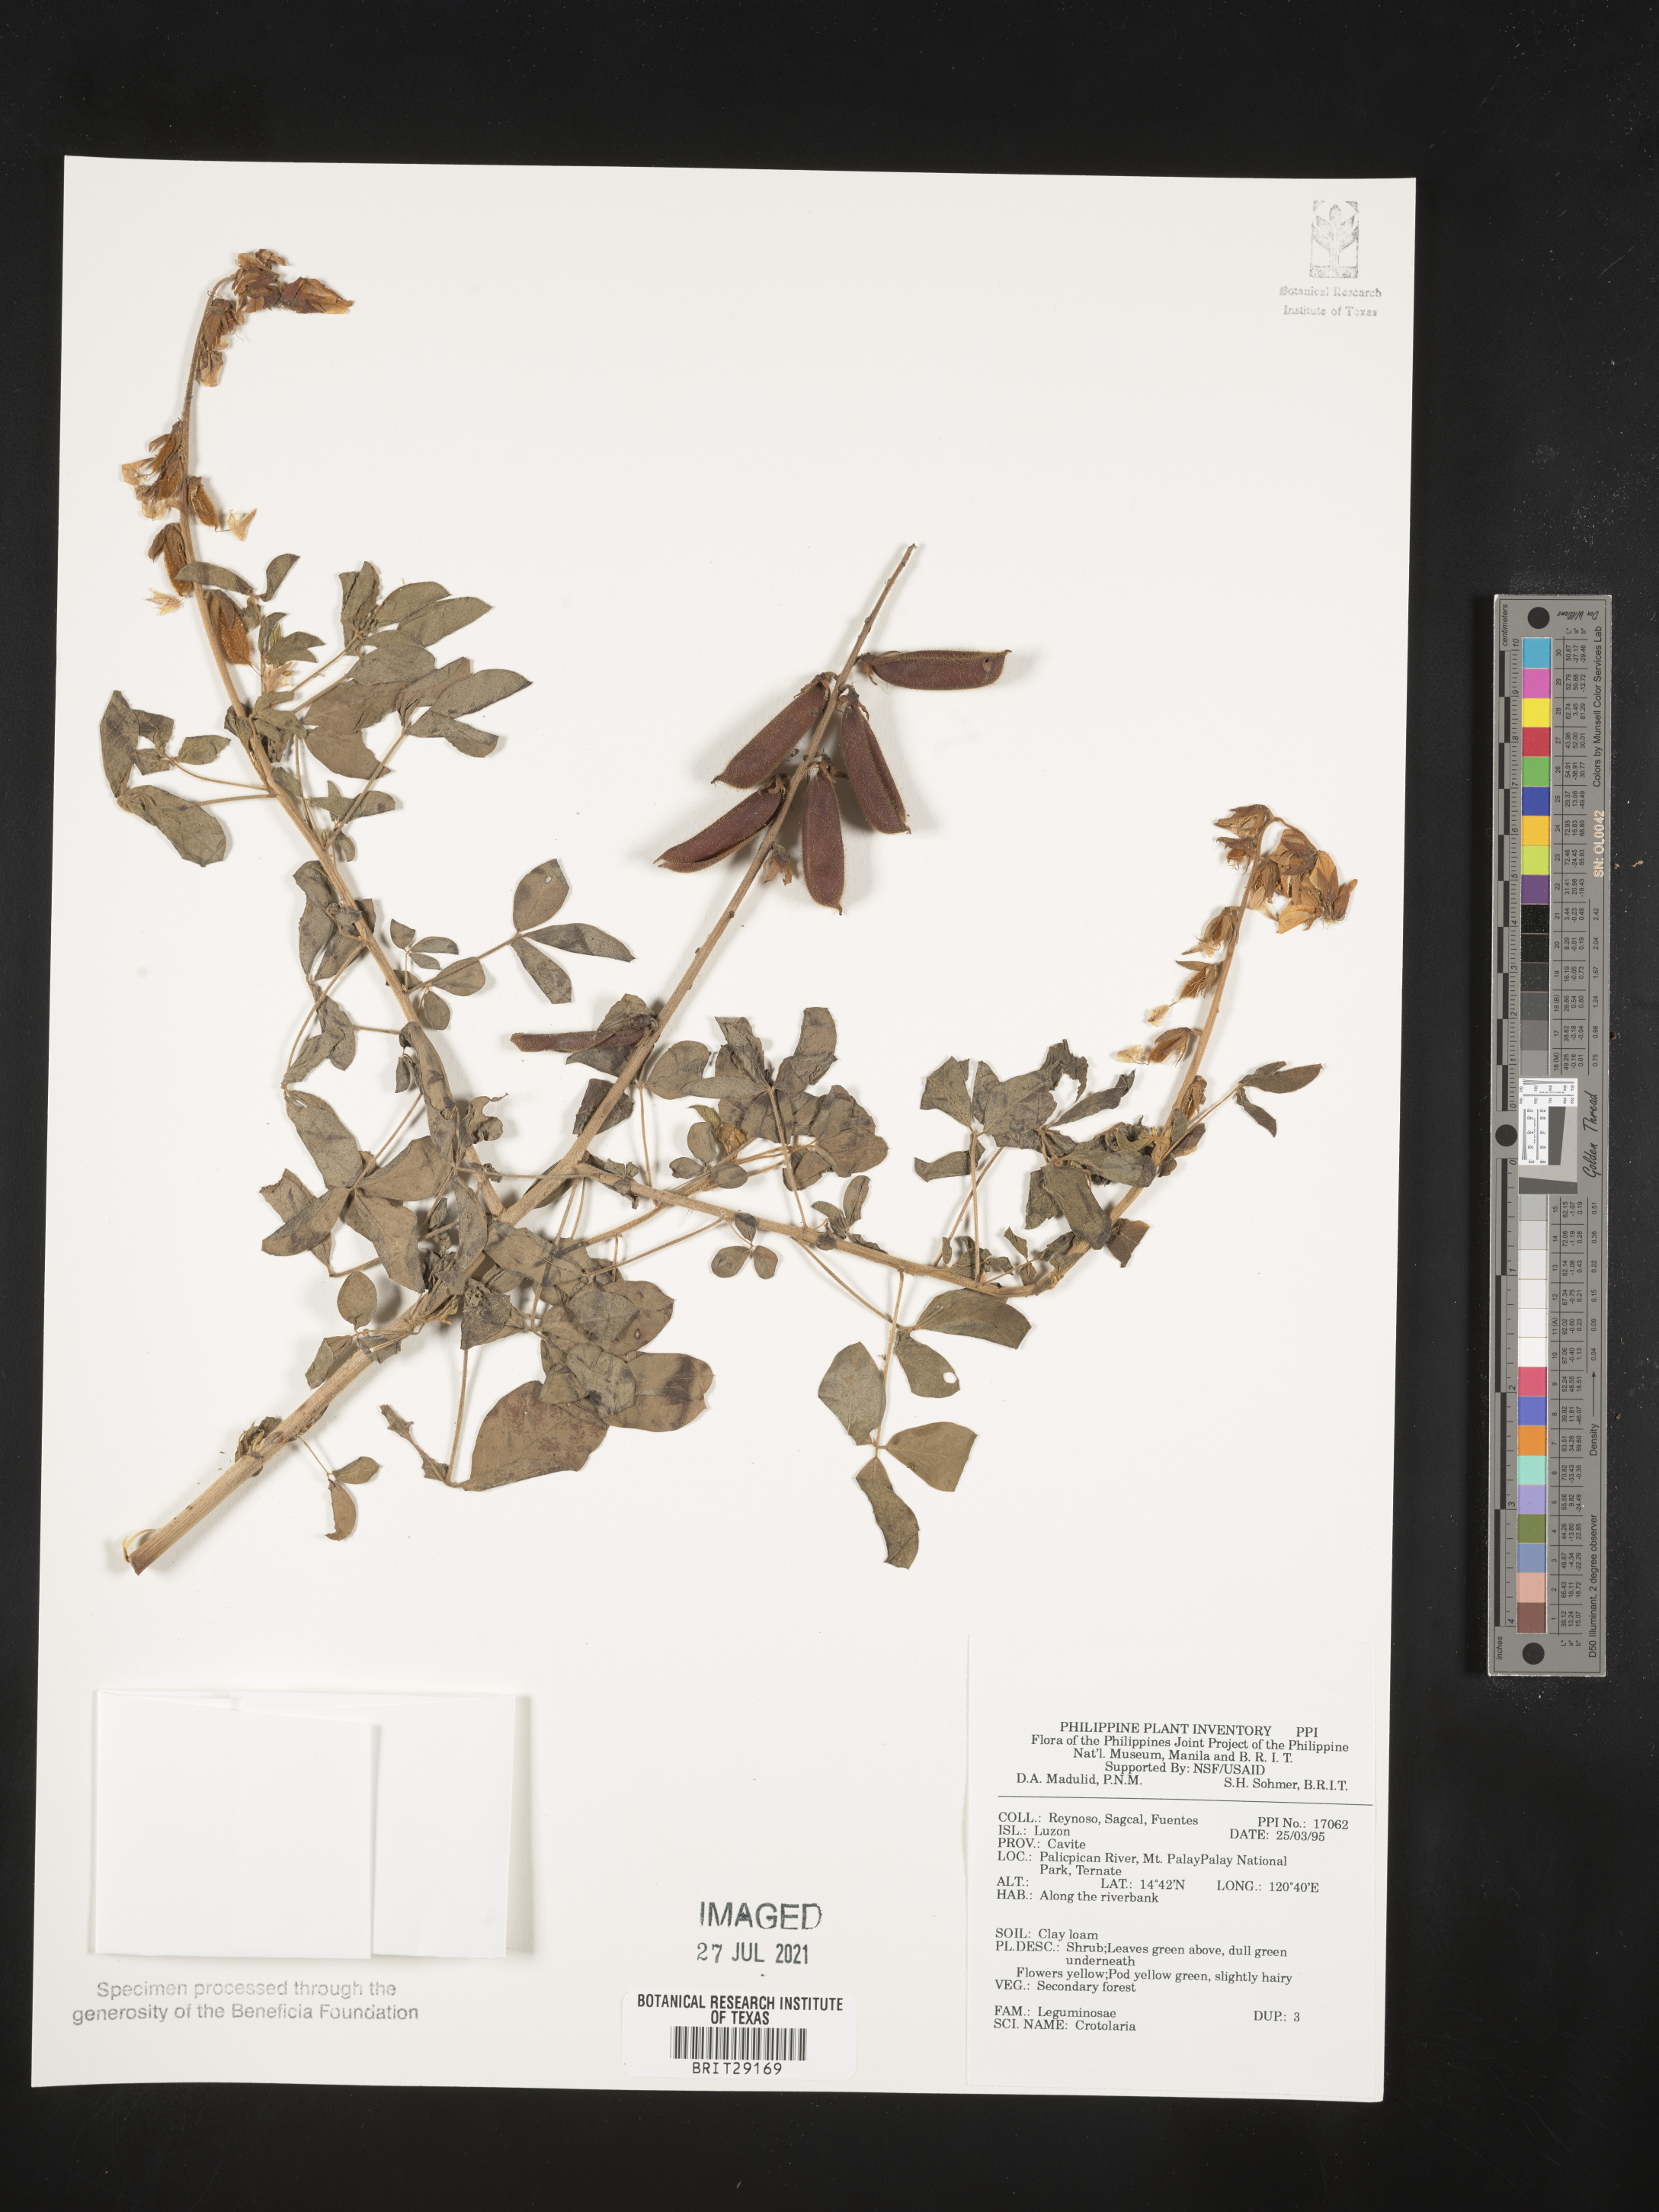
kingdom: Plantae
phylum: Tracheophyta
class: Magnoliopsida
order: Fabales
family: Fabaceae
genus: Crotalaria
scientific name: Crotalaria
